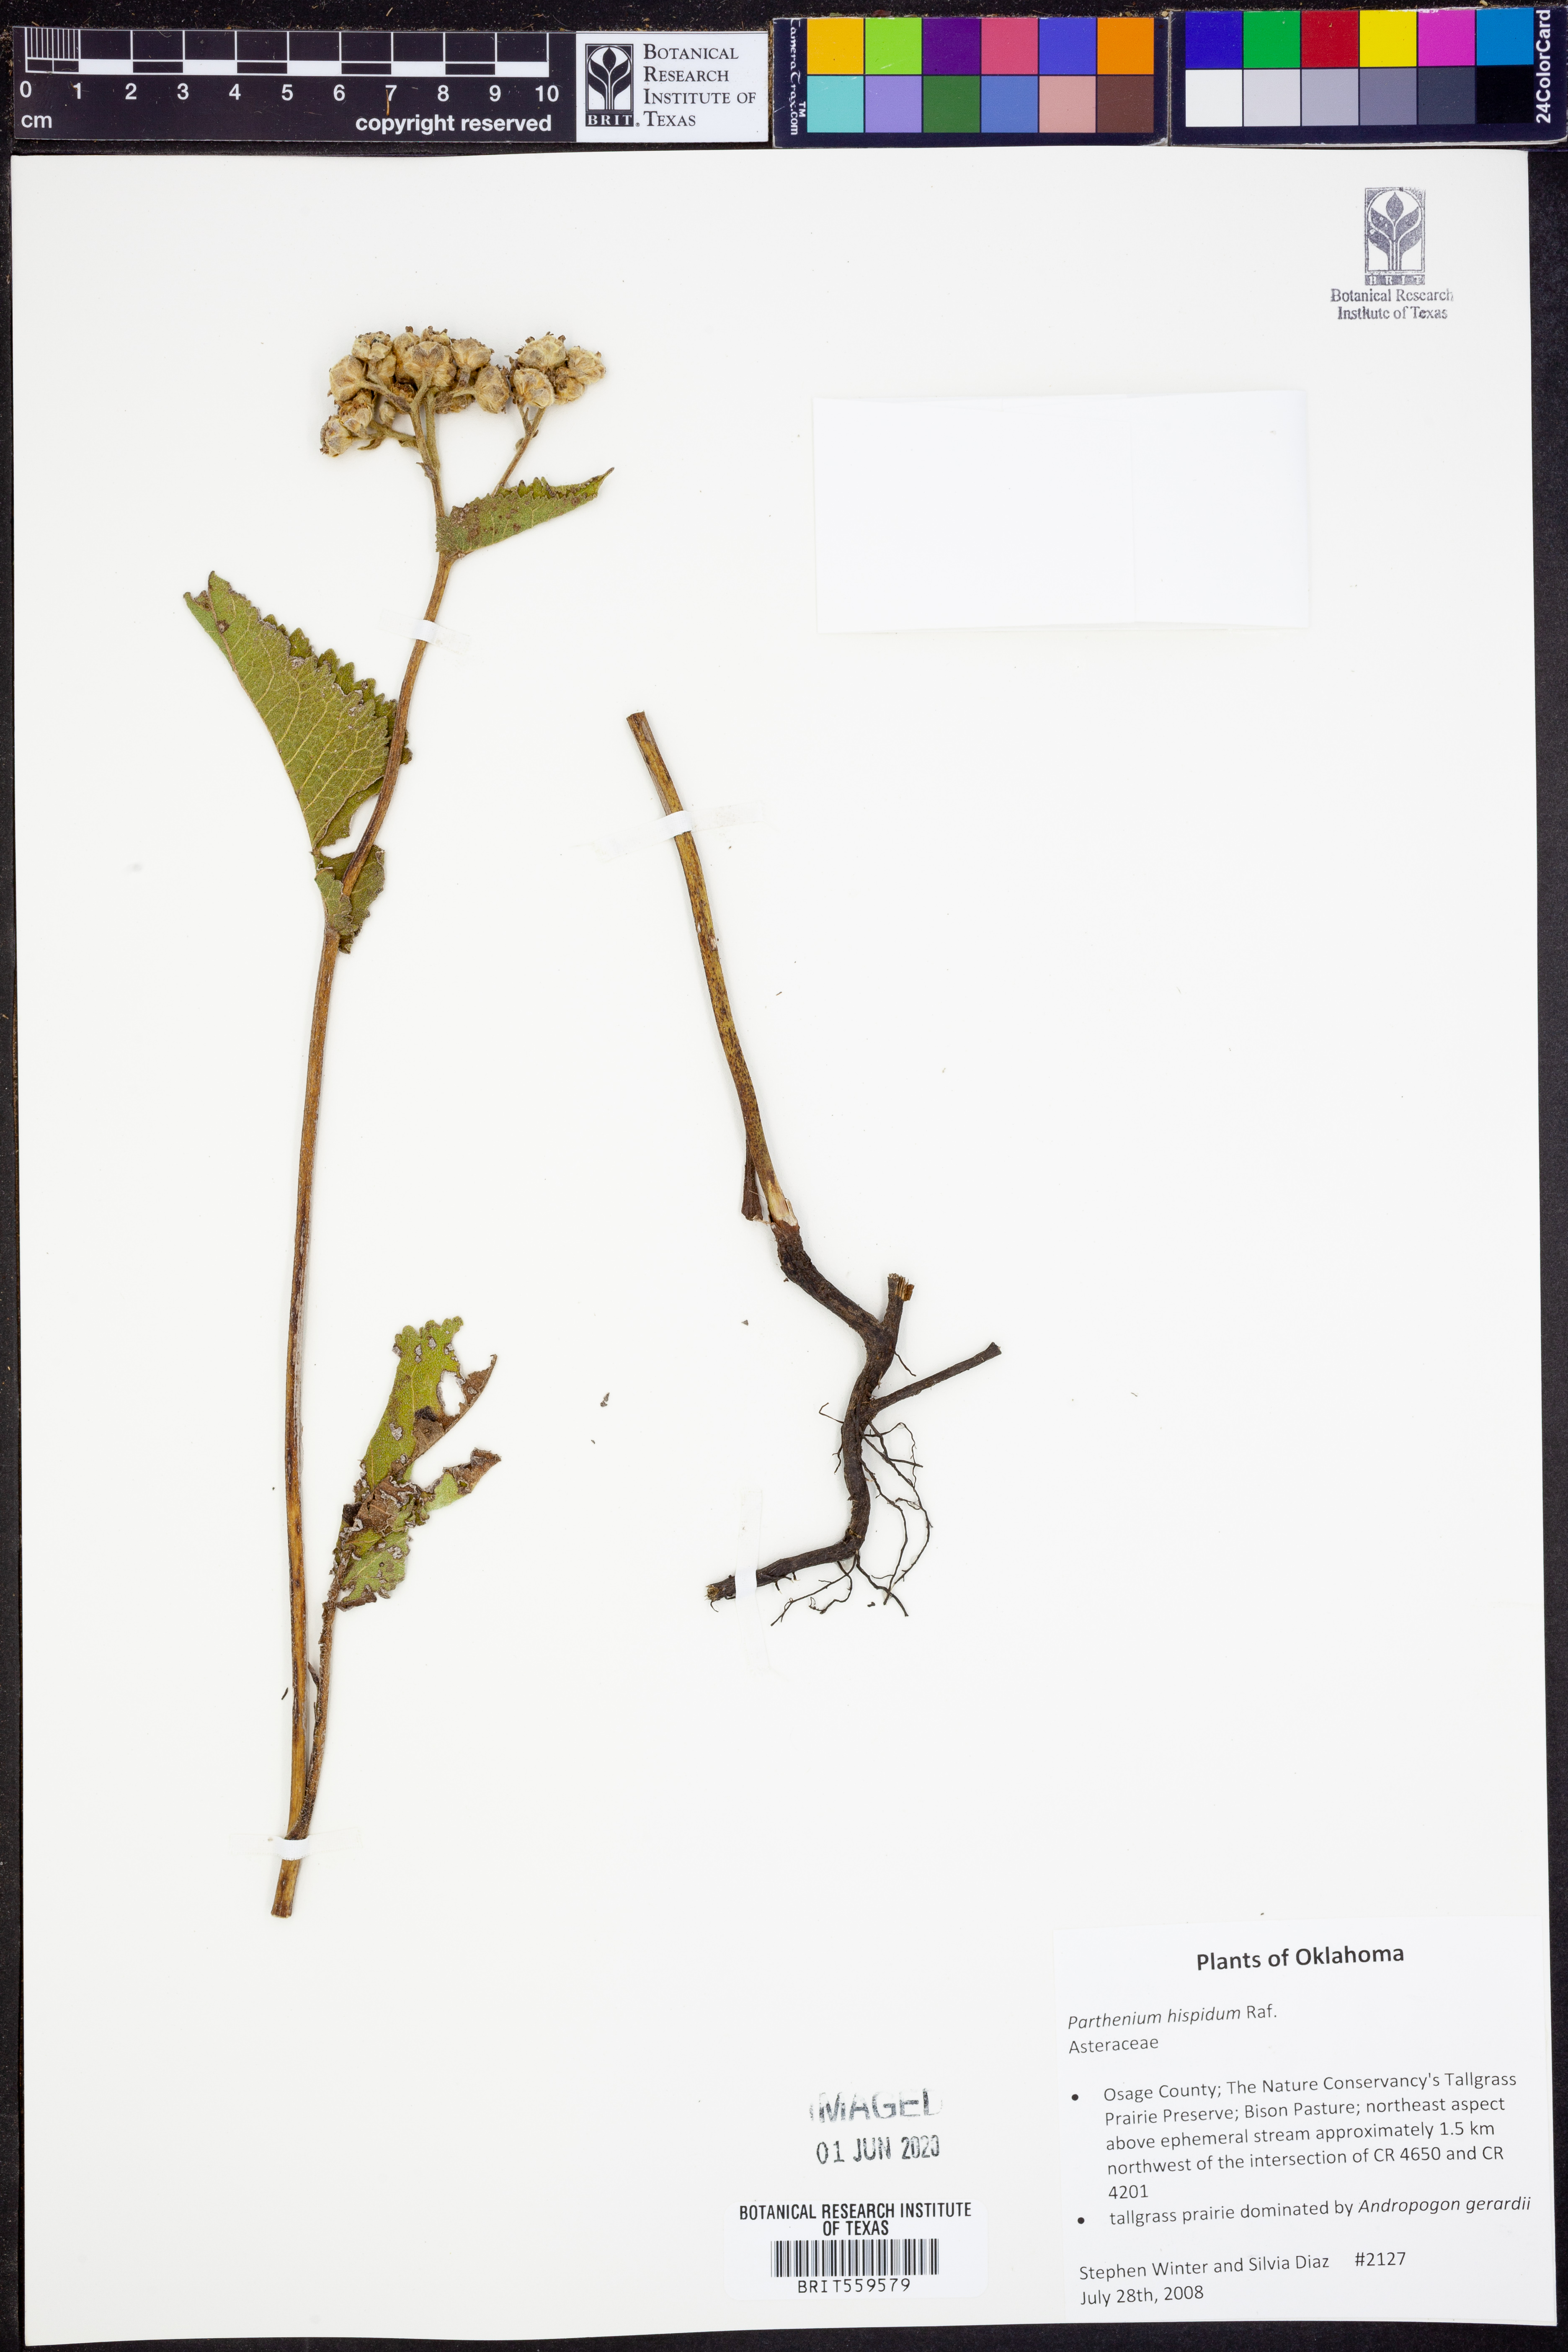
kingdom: Plantae
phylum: Tracheophyta
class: Magnoliopsida
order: Asterales
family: Asteraceae
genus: Parthenium
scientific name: Parthenium hispidum
